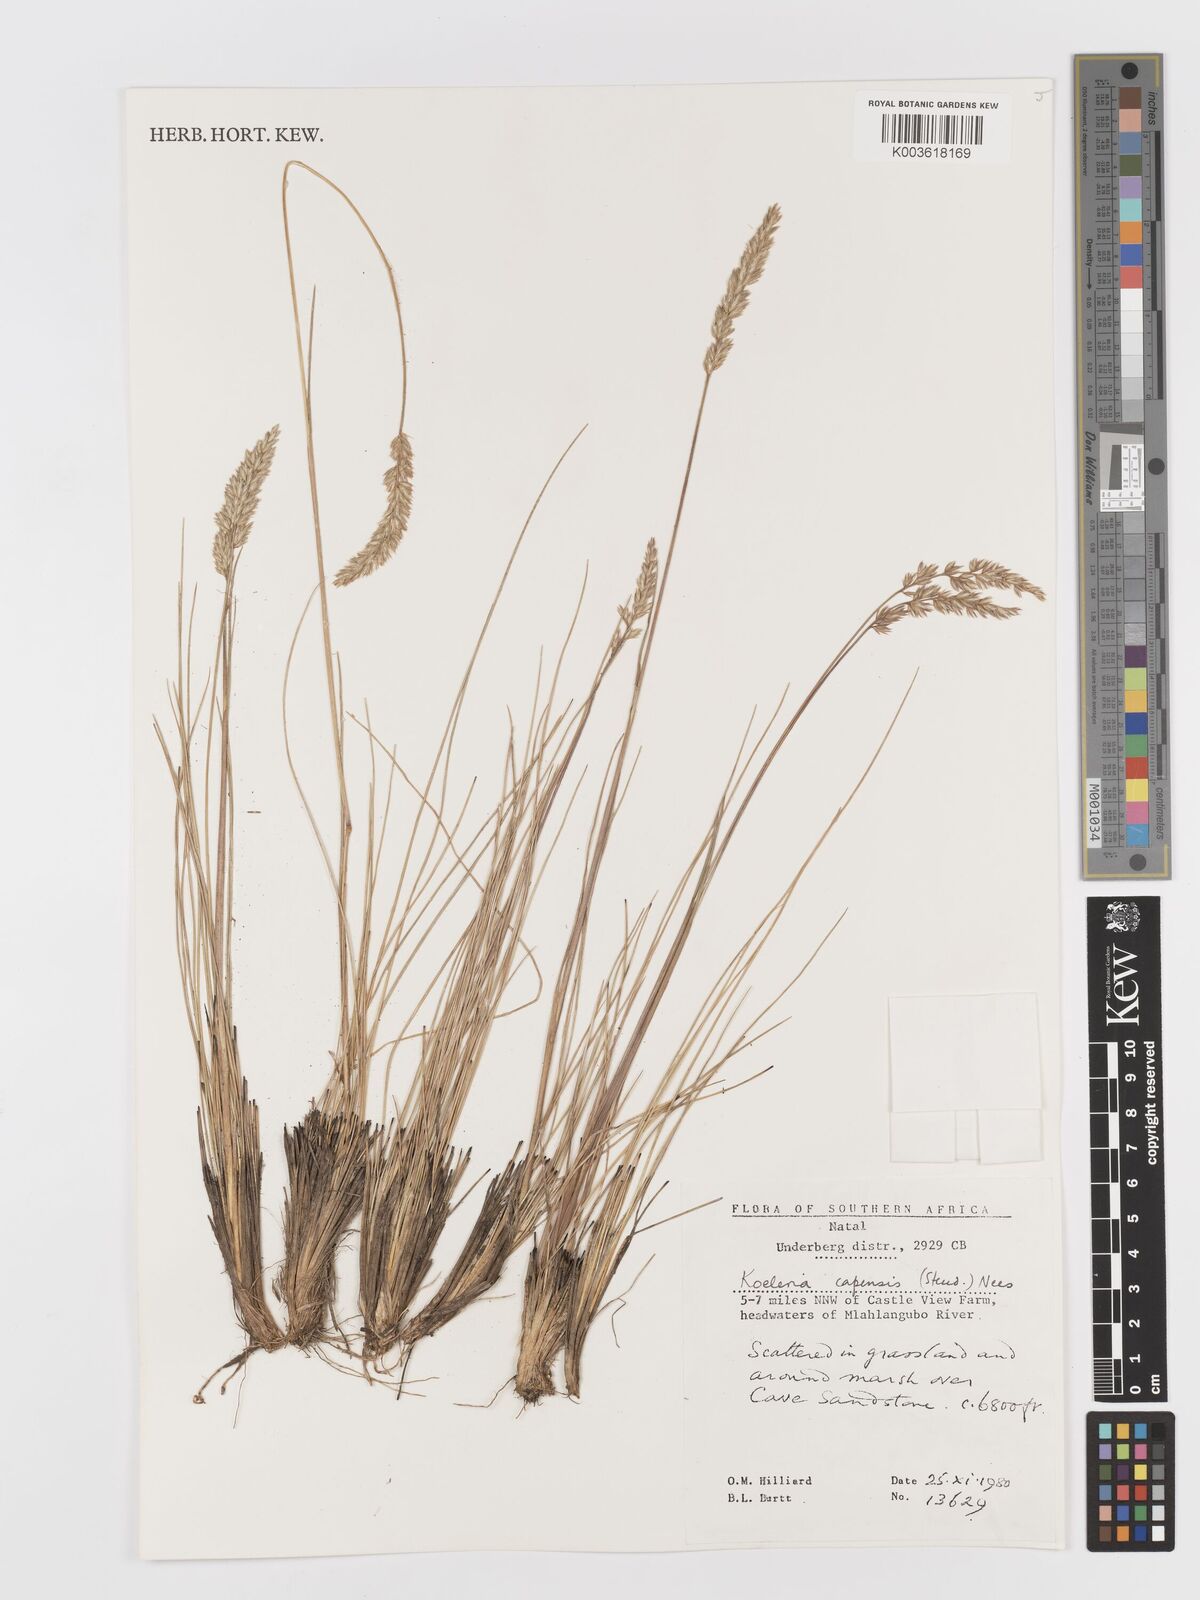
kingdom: Plantae
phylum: Tracheophyta
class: Liliopsida
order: Poales
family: Poaceae
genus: Koeleria
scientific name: Koeleria capensis
